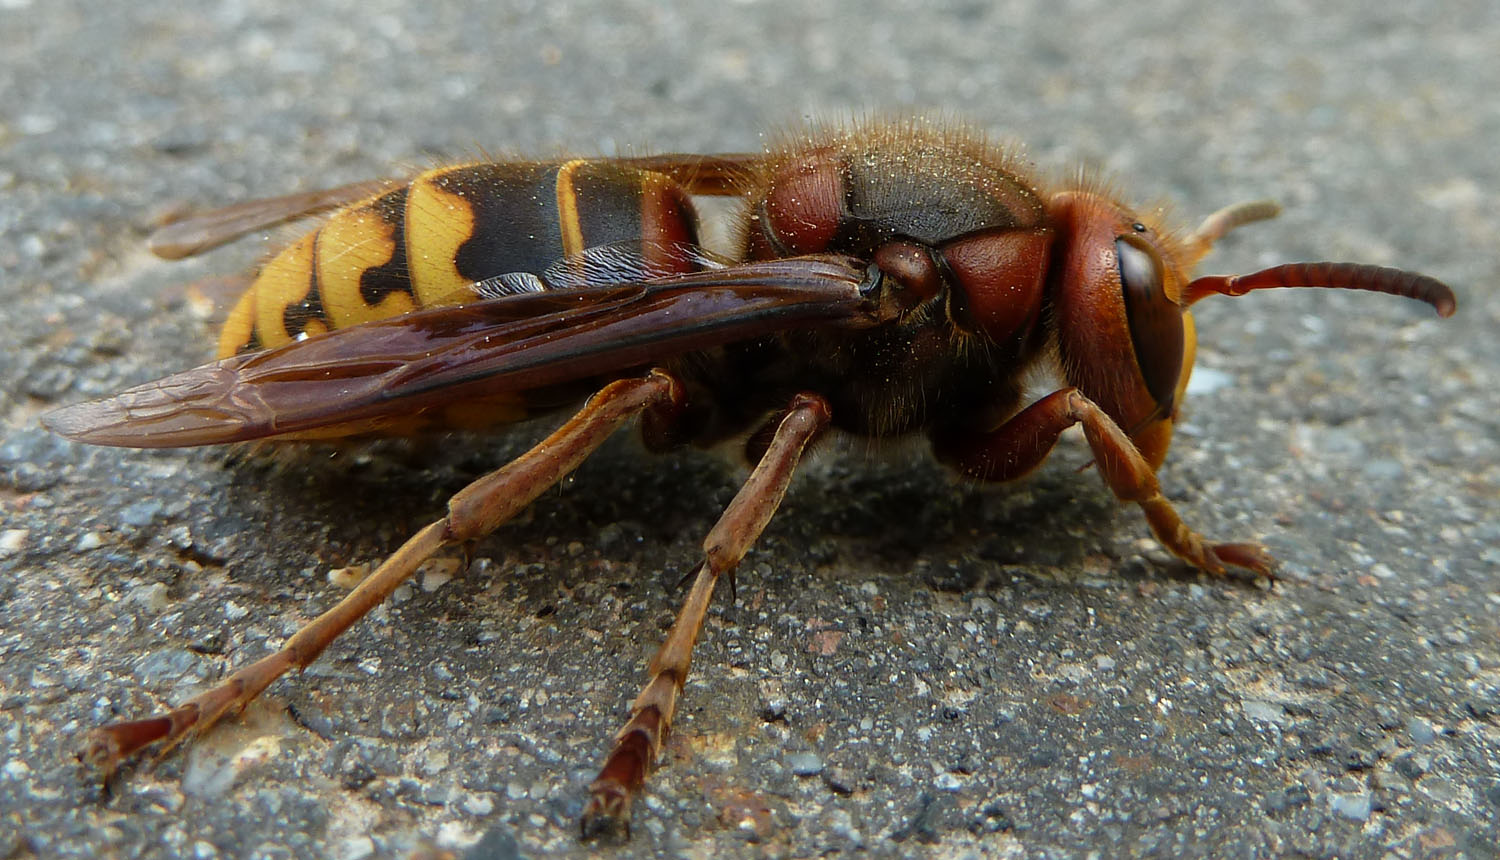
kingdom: Animalia
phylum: Arthropoda
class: Insecta
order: Hymenoptera
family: Vespidae
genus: Vespa
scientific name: Vespa crabro
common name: Hornet
